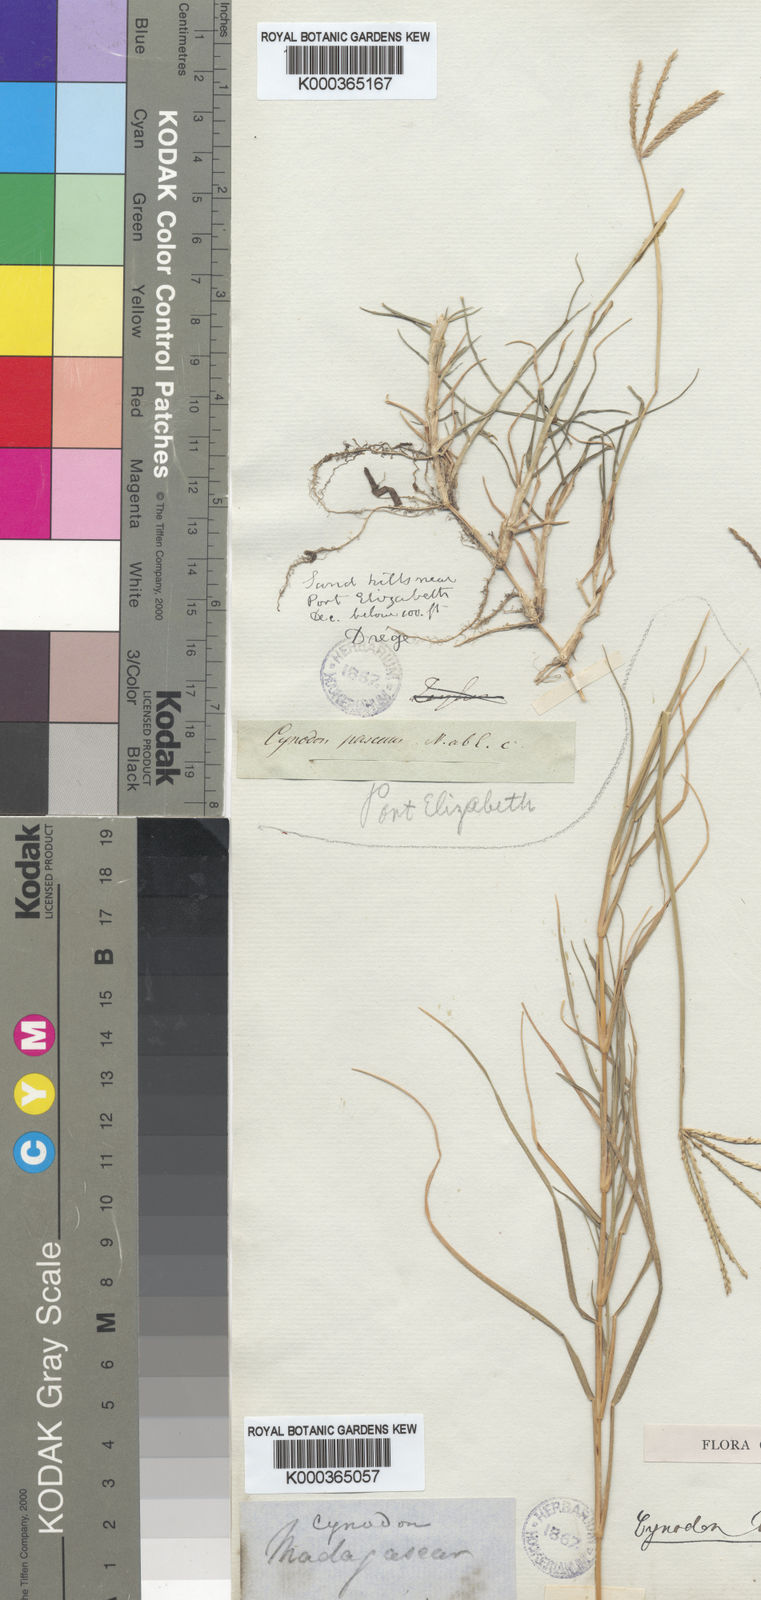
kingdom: Plantae
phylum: Tracheophyta
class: Liliopsida
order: Poales
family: Poaceae
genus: Cynodon
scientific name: Cynodon dactylon
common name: Bermuda grass
